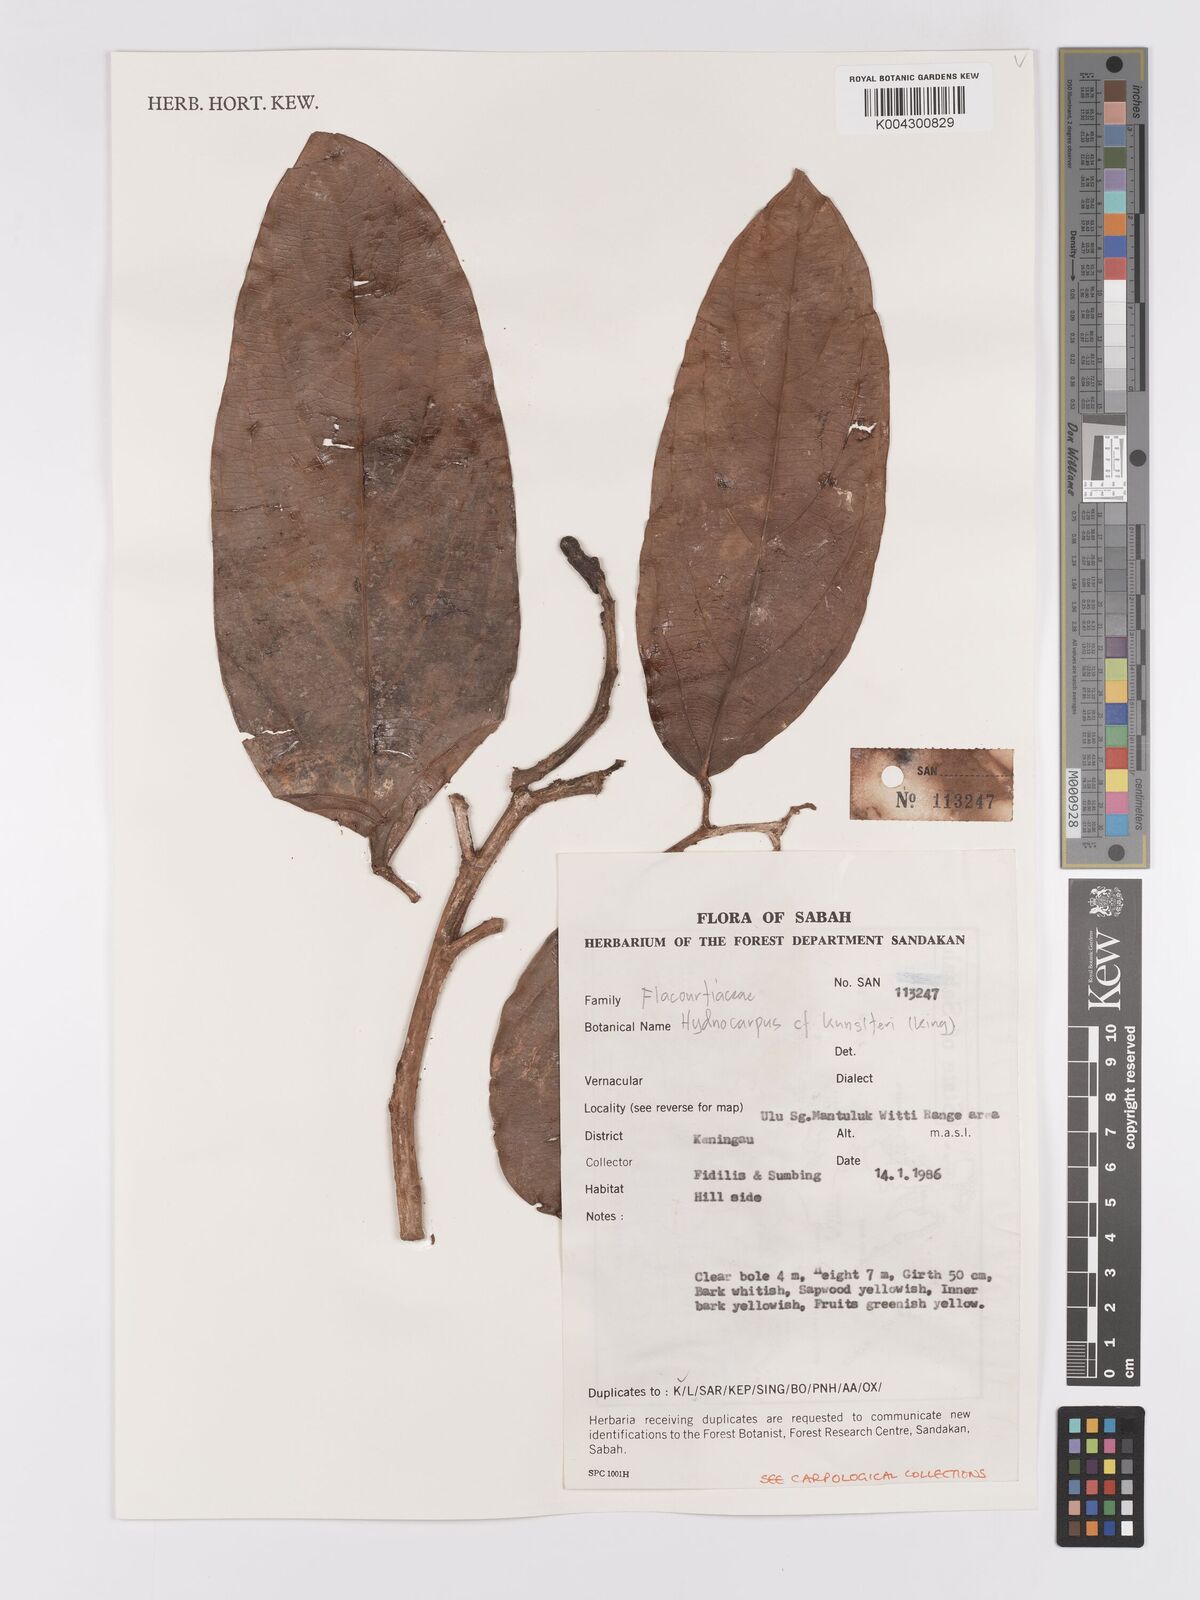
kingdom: Plantae
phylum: Tracheophyta
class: Magnoliopsida
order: Malpighiales
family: Achariaceae
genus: Hydnocarpus
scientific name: Hydnocarpus kunstleri
